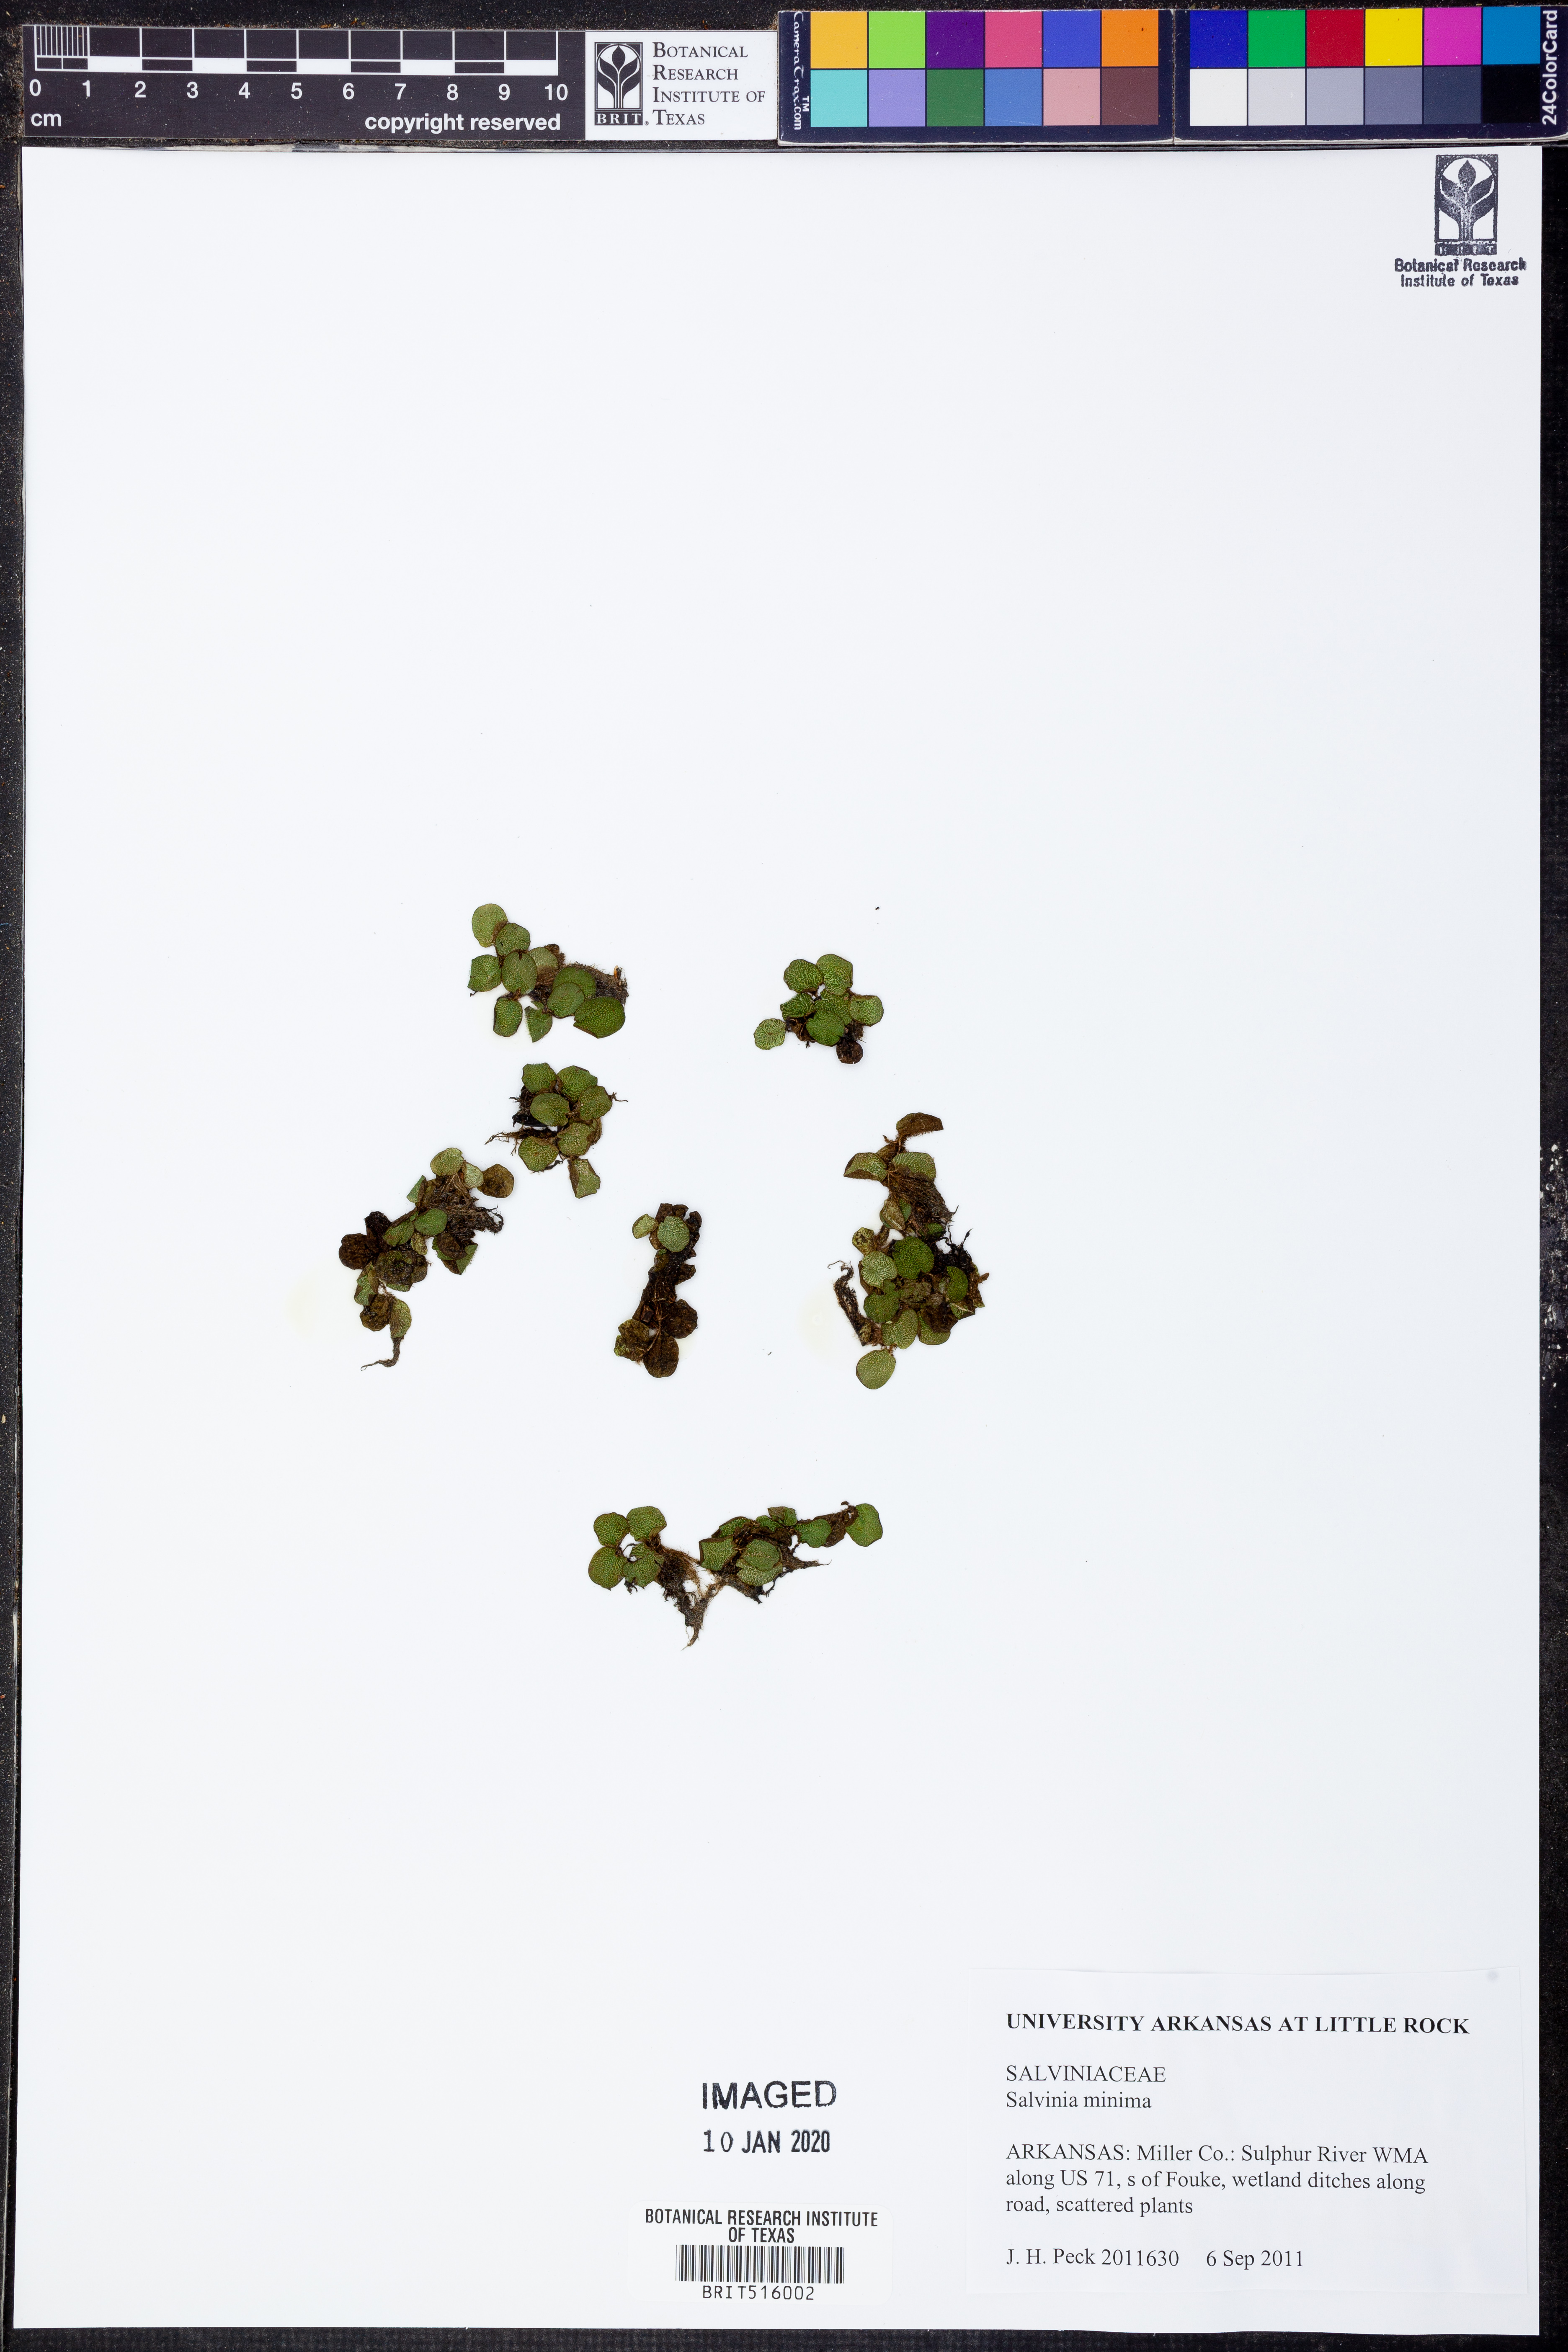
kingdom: Plantae
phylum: Tracheophyta
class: Polypodiopsida
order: Salviniales
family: Salviniaceae
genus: Salvinia
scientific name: Salvinia minima
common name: Water spangles
